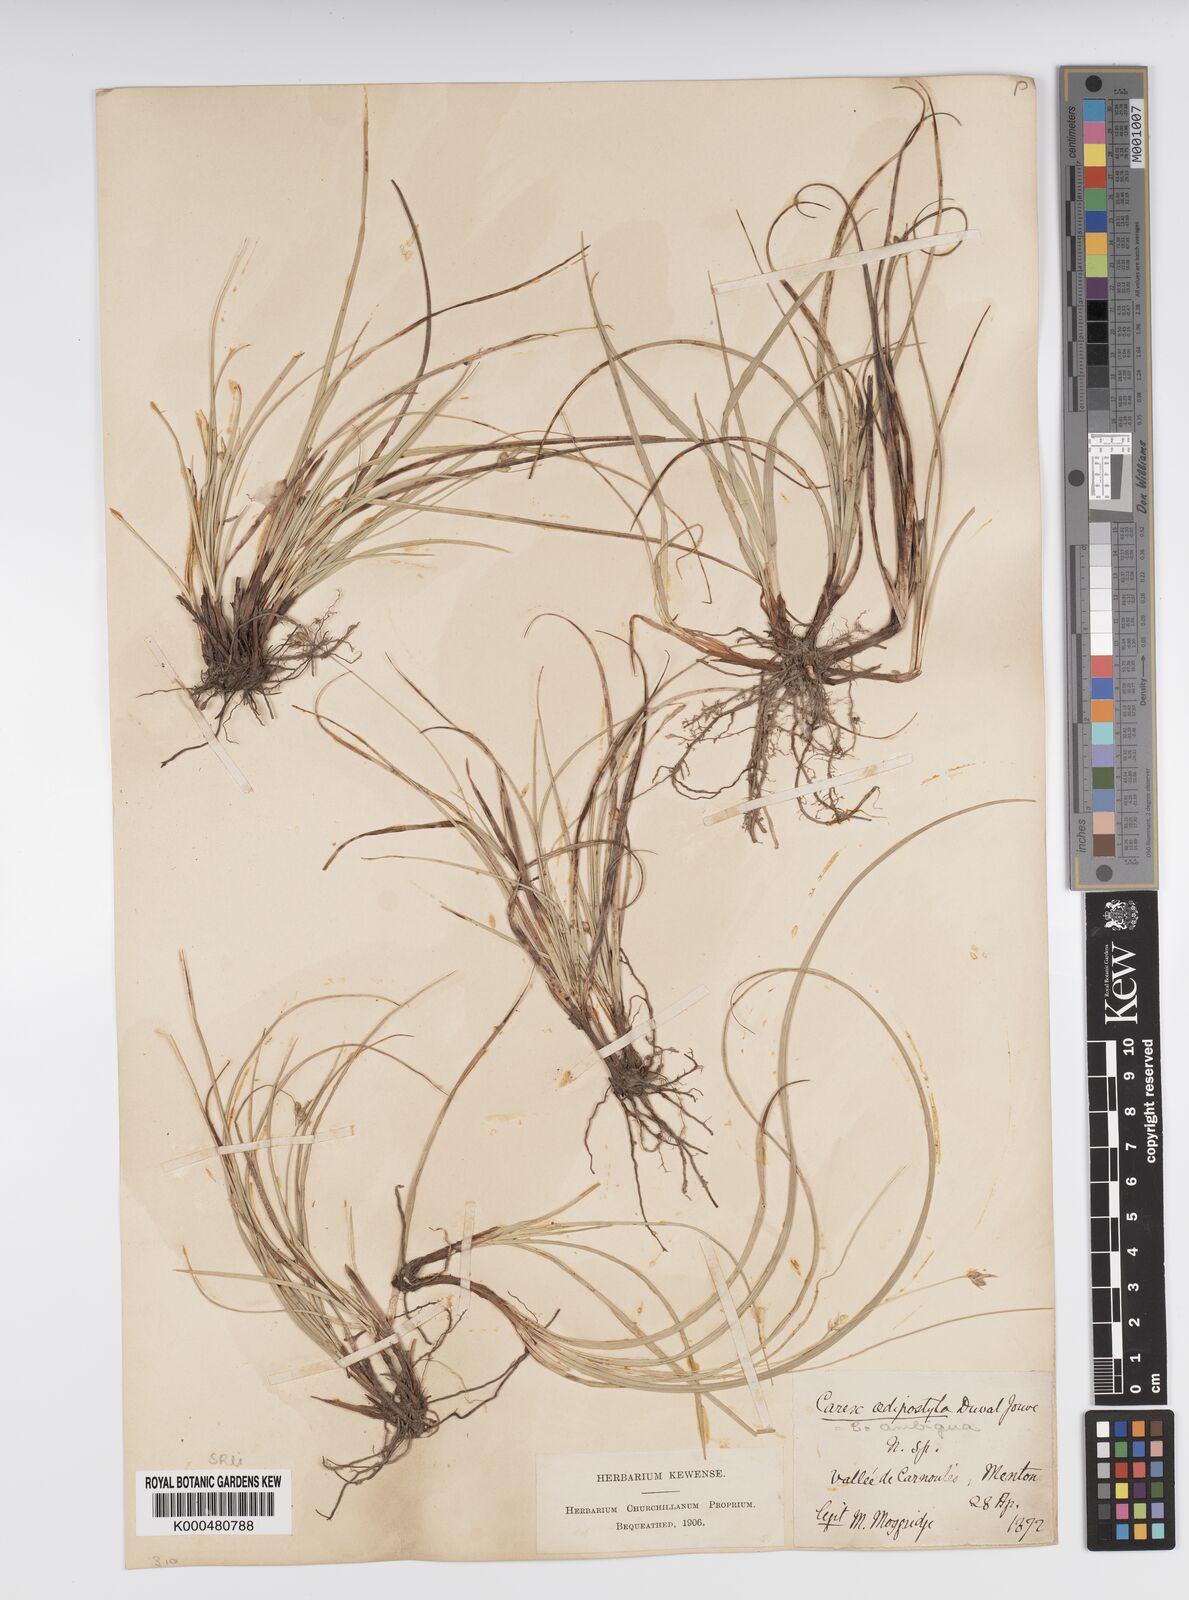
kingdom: Plantae
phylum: Tracheophyta
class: Liliopsida
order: Poales
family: Cyperaceae
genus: Carex
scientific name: Carex oedipostyla
